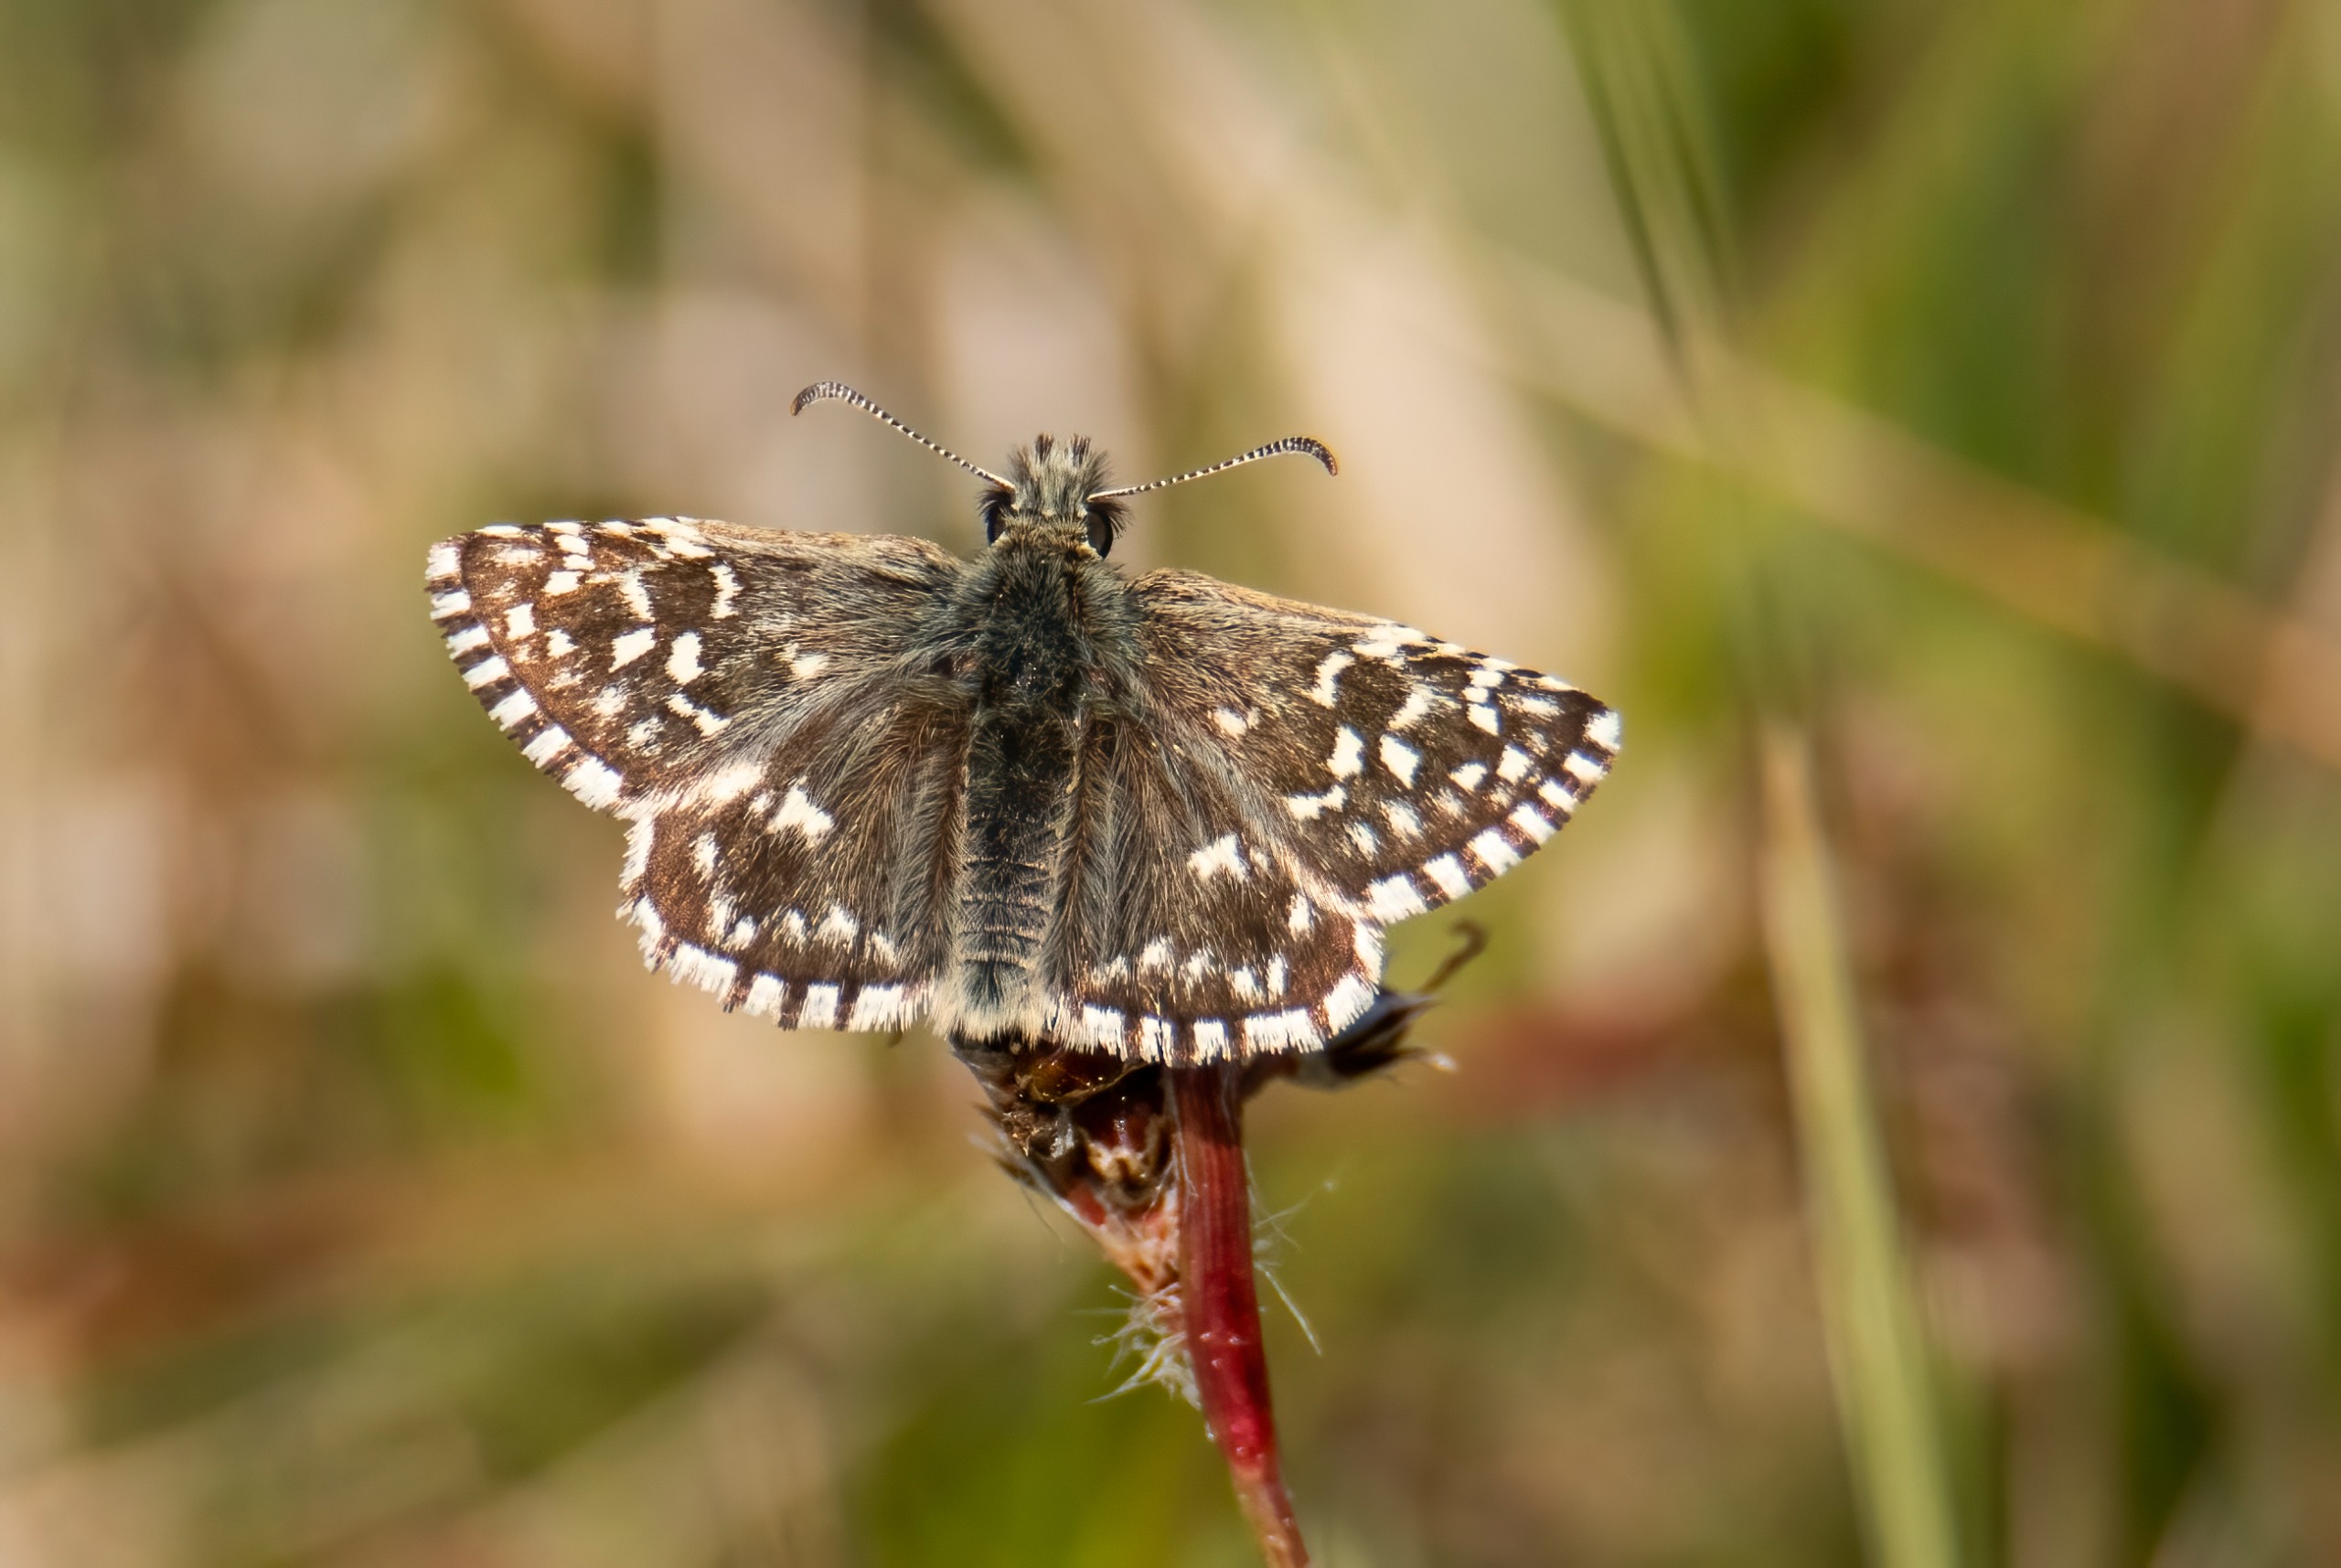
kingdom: Animalia
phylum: Arthropoda
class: Insecta
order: Lepidoptera
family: Hesperiidae
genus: Pyrgus
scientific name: Pyrgus malvae
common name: Spættet bredpande
